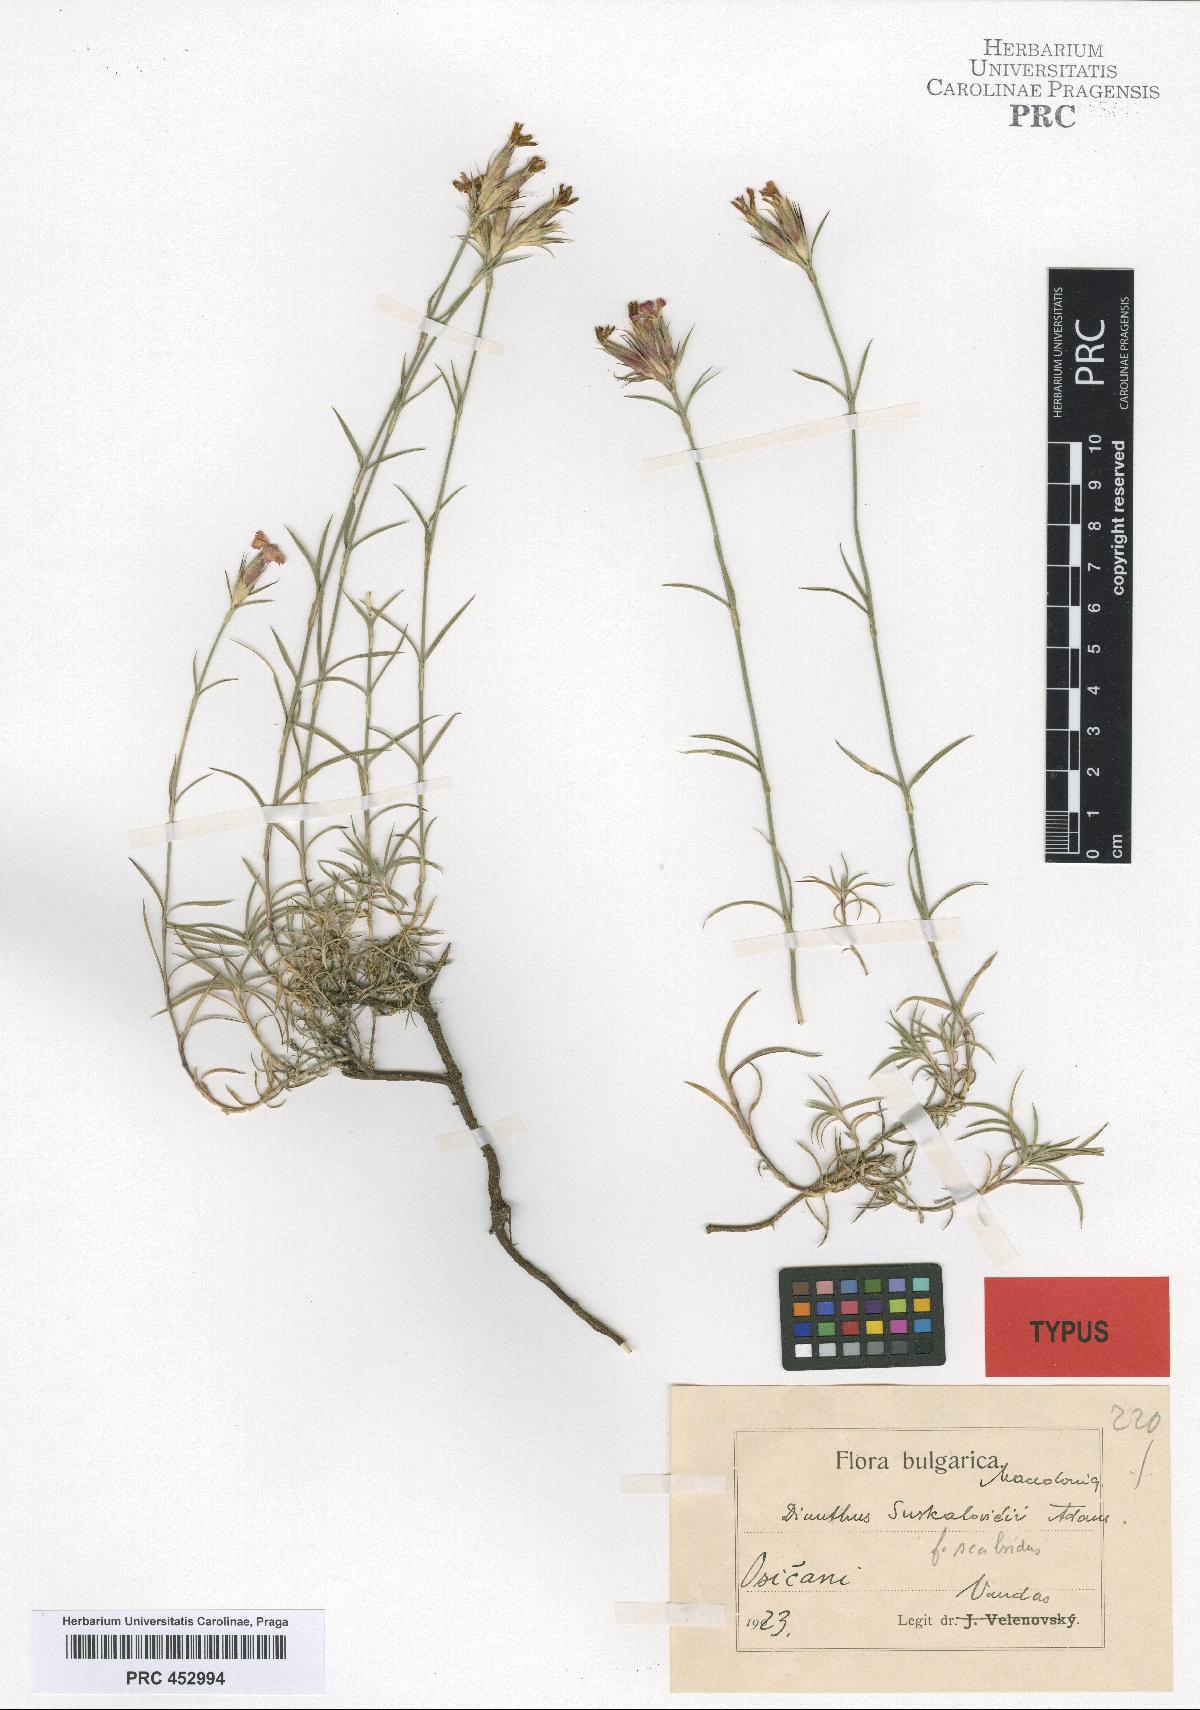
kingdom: Plantae
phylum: Tracheophyta
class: Magnoliopsida
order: Caryophyllales
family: Caryophyllaceae
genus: Dianthus
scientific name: Dianthus gracilis
